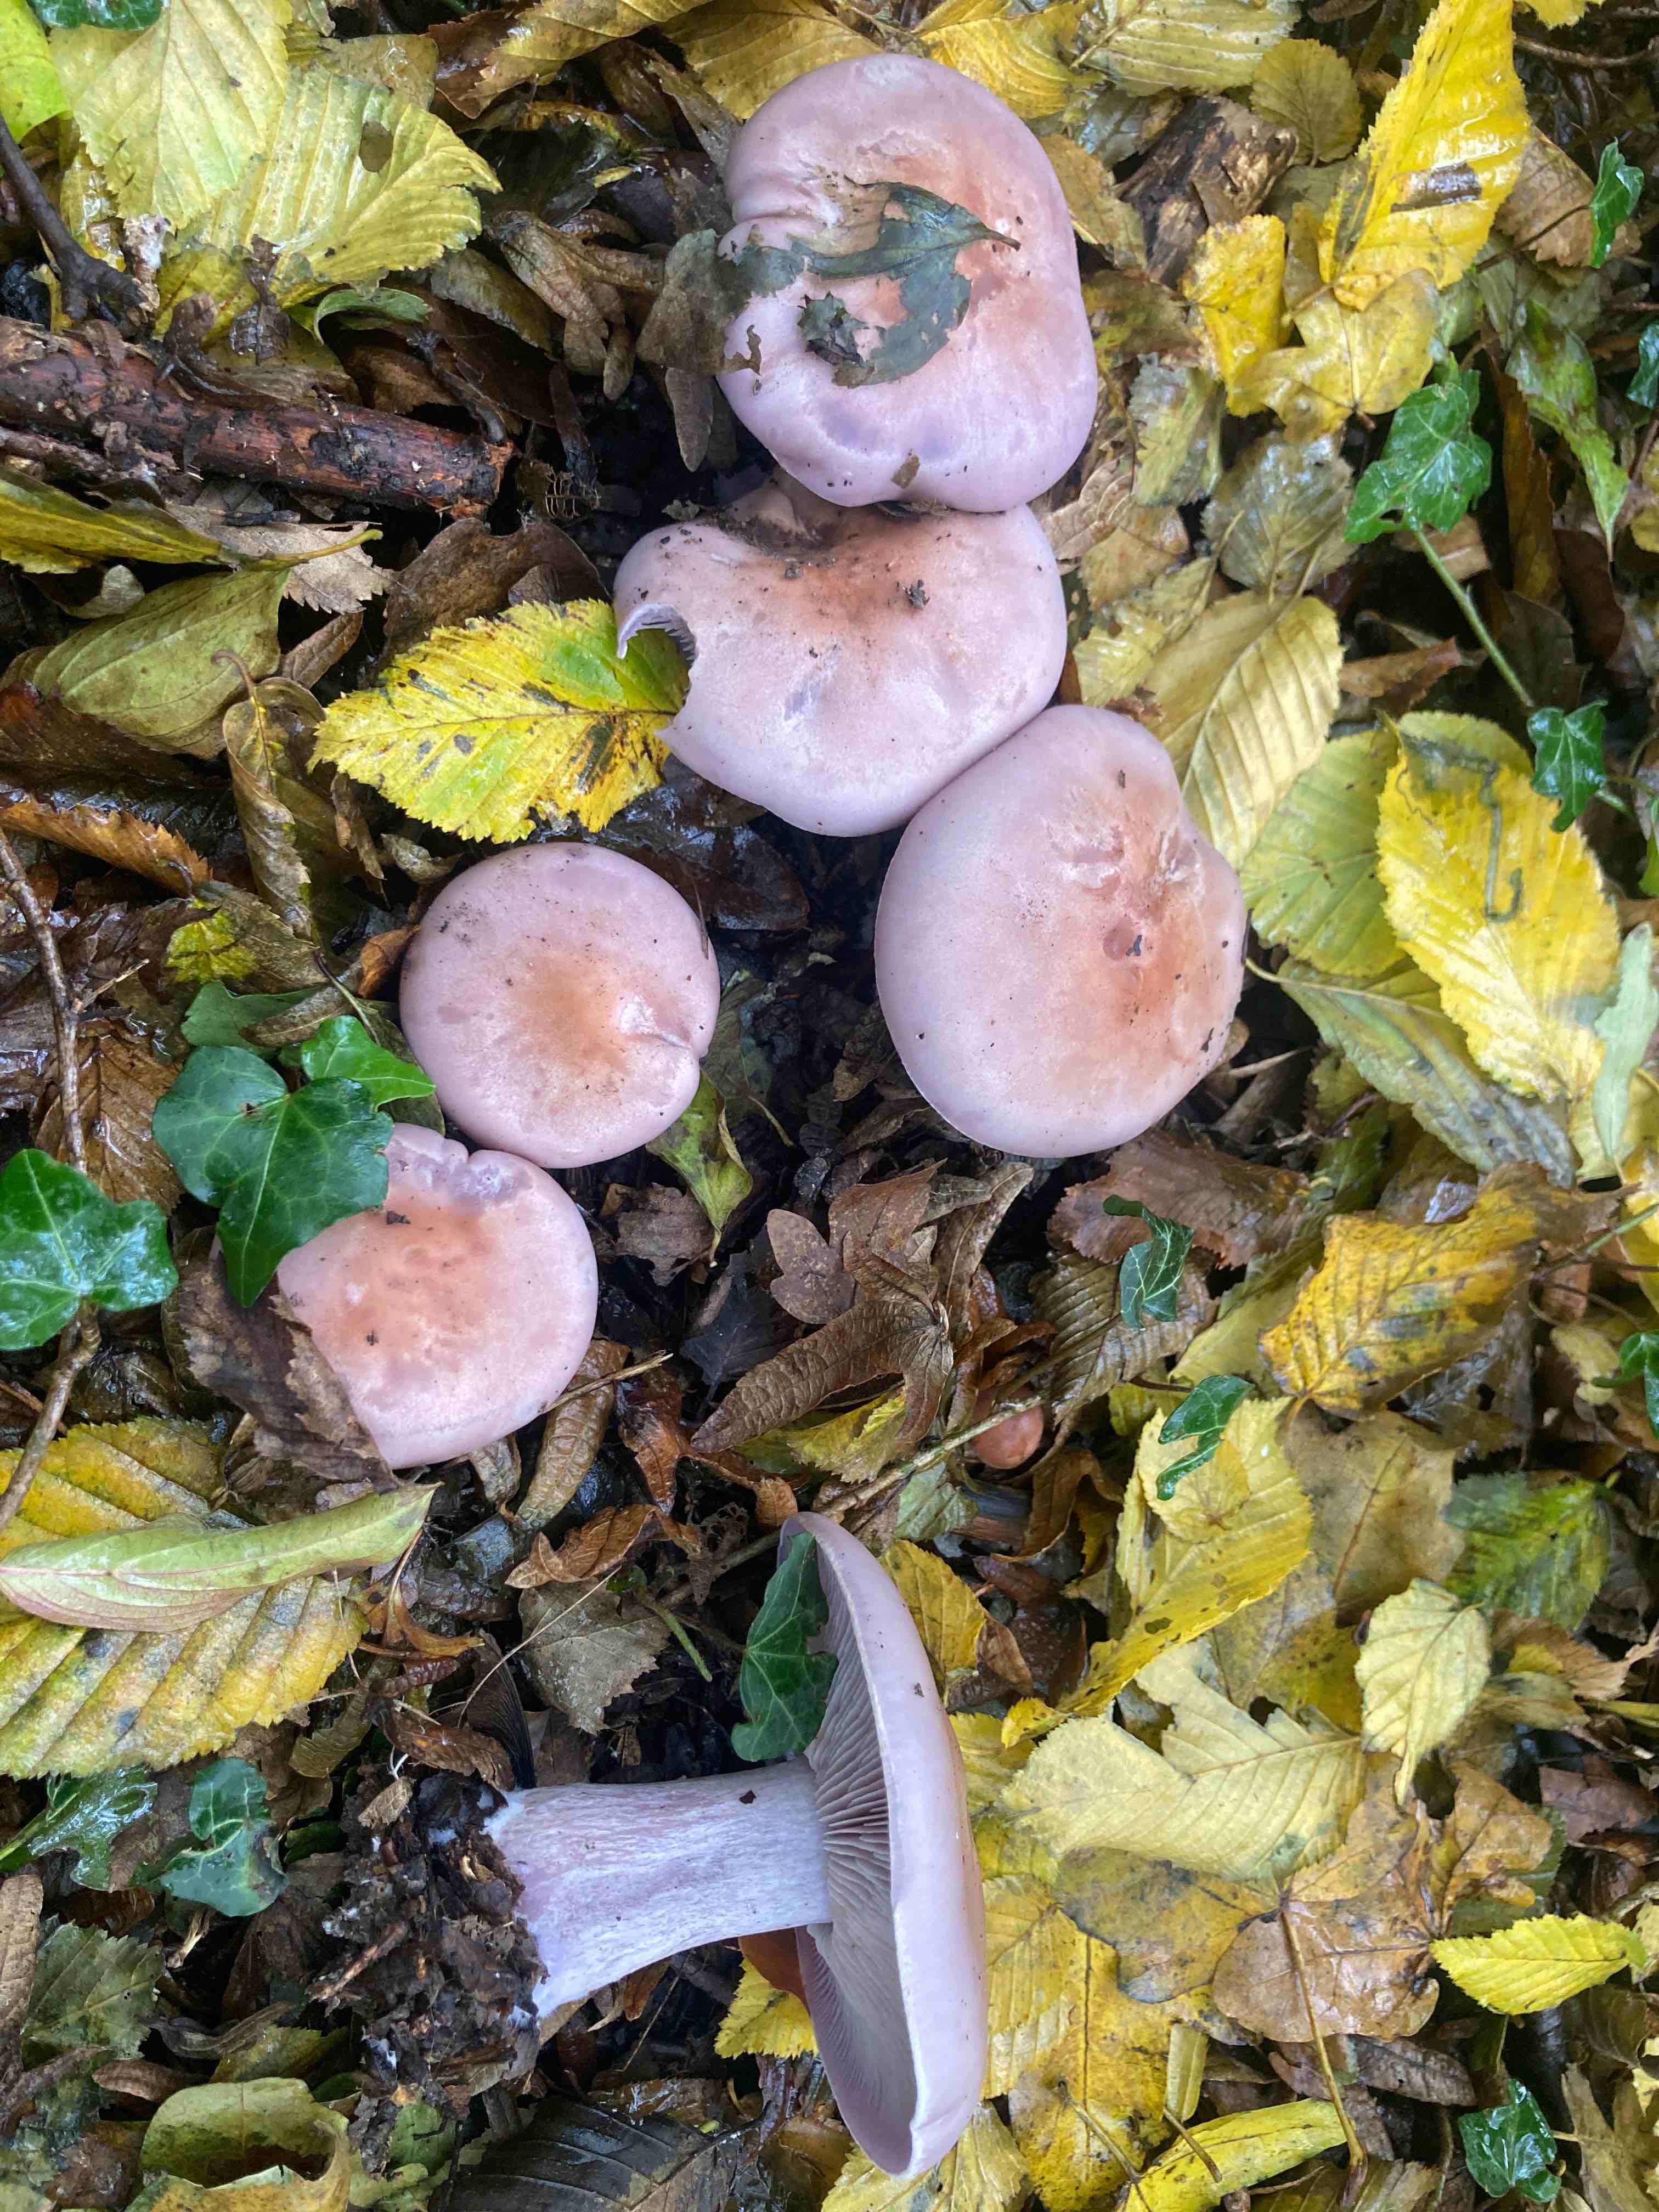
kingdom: Fungi
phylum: Basidiomycota
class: Agaricomycetes
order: Agaricales
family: Tricholomataceae
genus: Lepista
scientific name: Lepista nuda
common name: violet hekseringshat
